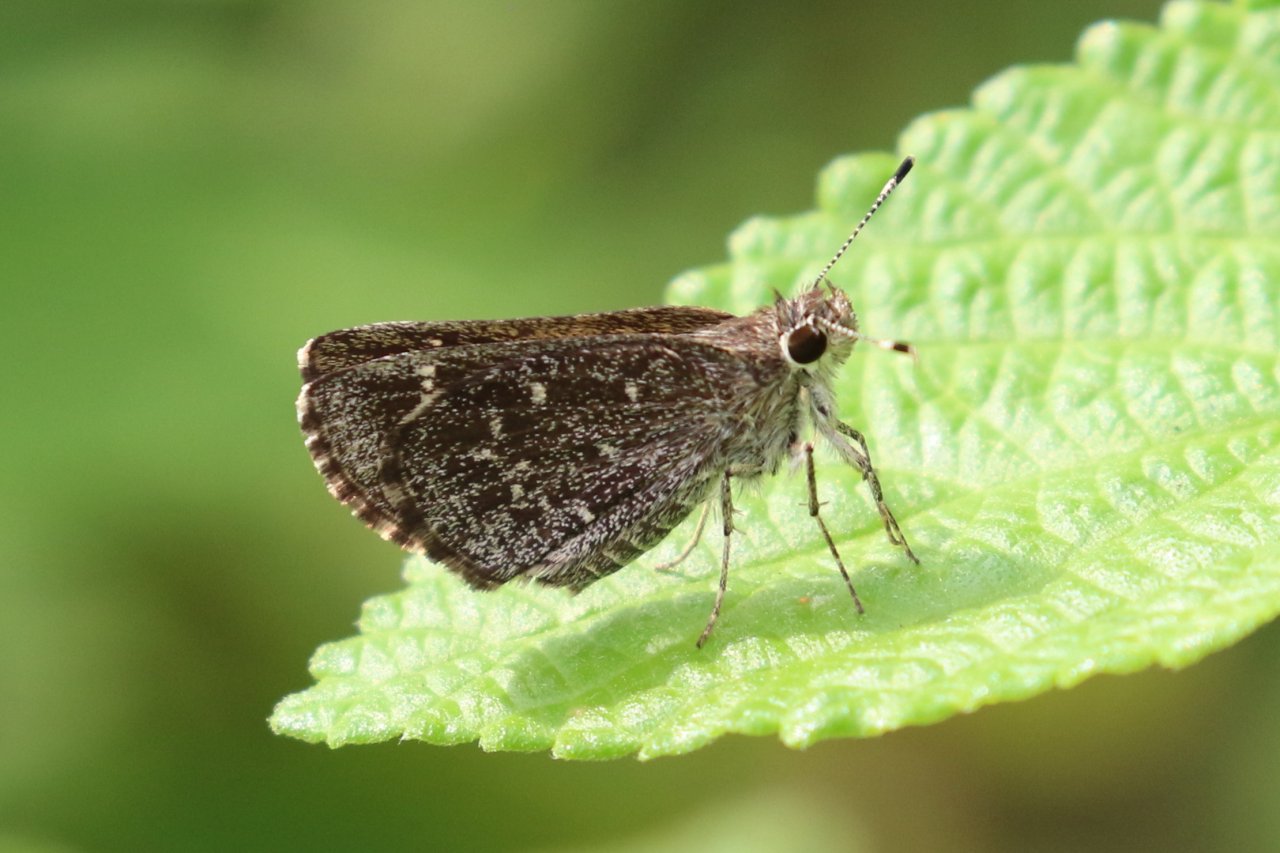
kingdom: Animalia
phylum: Arthropoda
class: Insecta
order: Lepidoptera
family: Hesperiidae
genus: Mastor
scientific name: Mastor celia
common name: Celia's Roadside-Skipper
